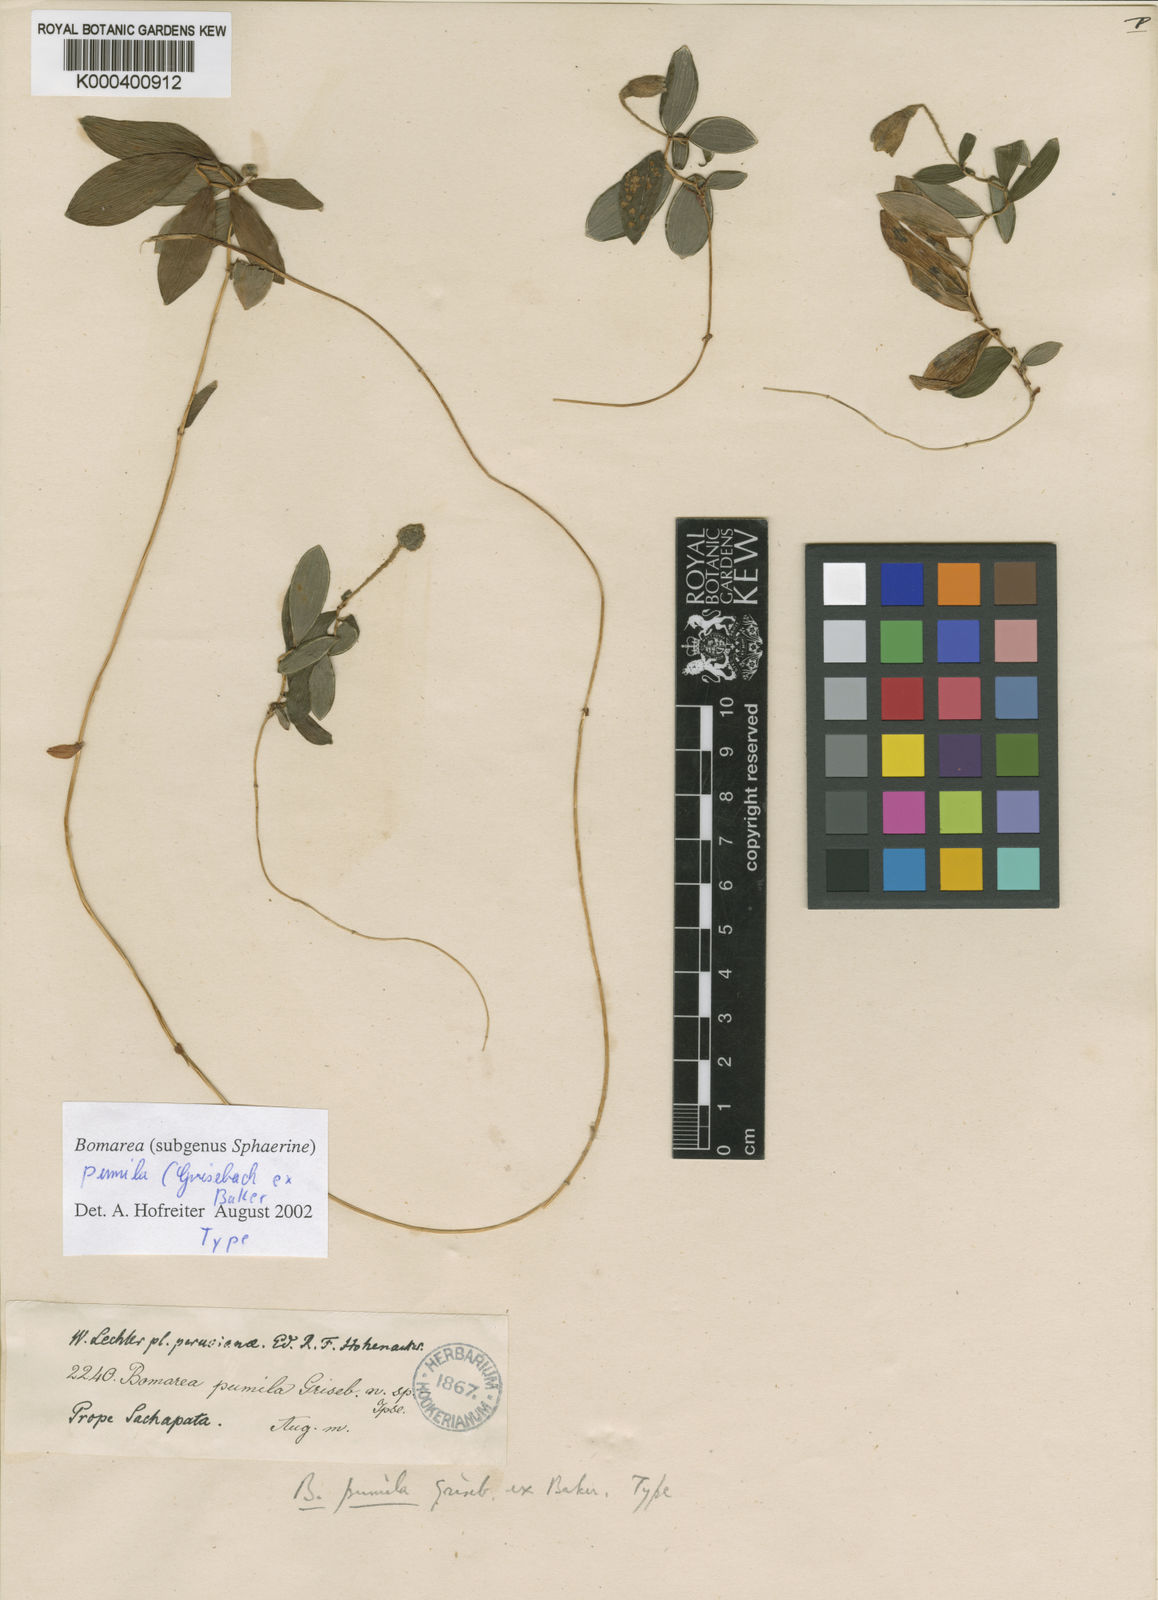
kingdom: Plantae
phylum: Tracheophyta
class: Liliopsida
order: Liliales
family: Alstroemeriaceae
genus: Bomarea
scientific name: Bomarea pumila
